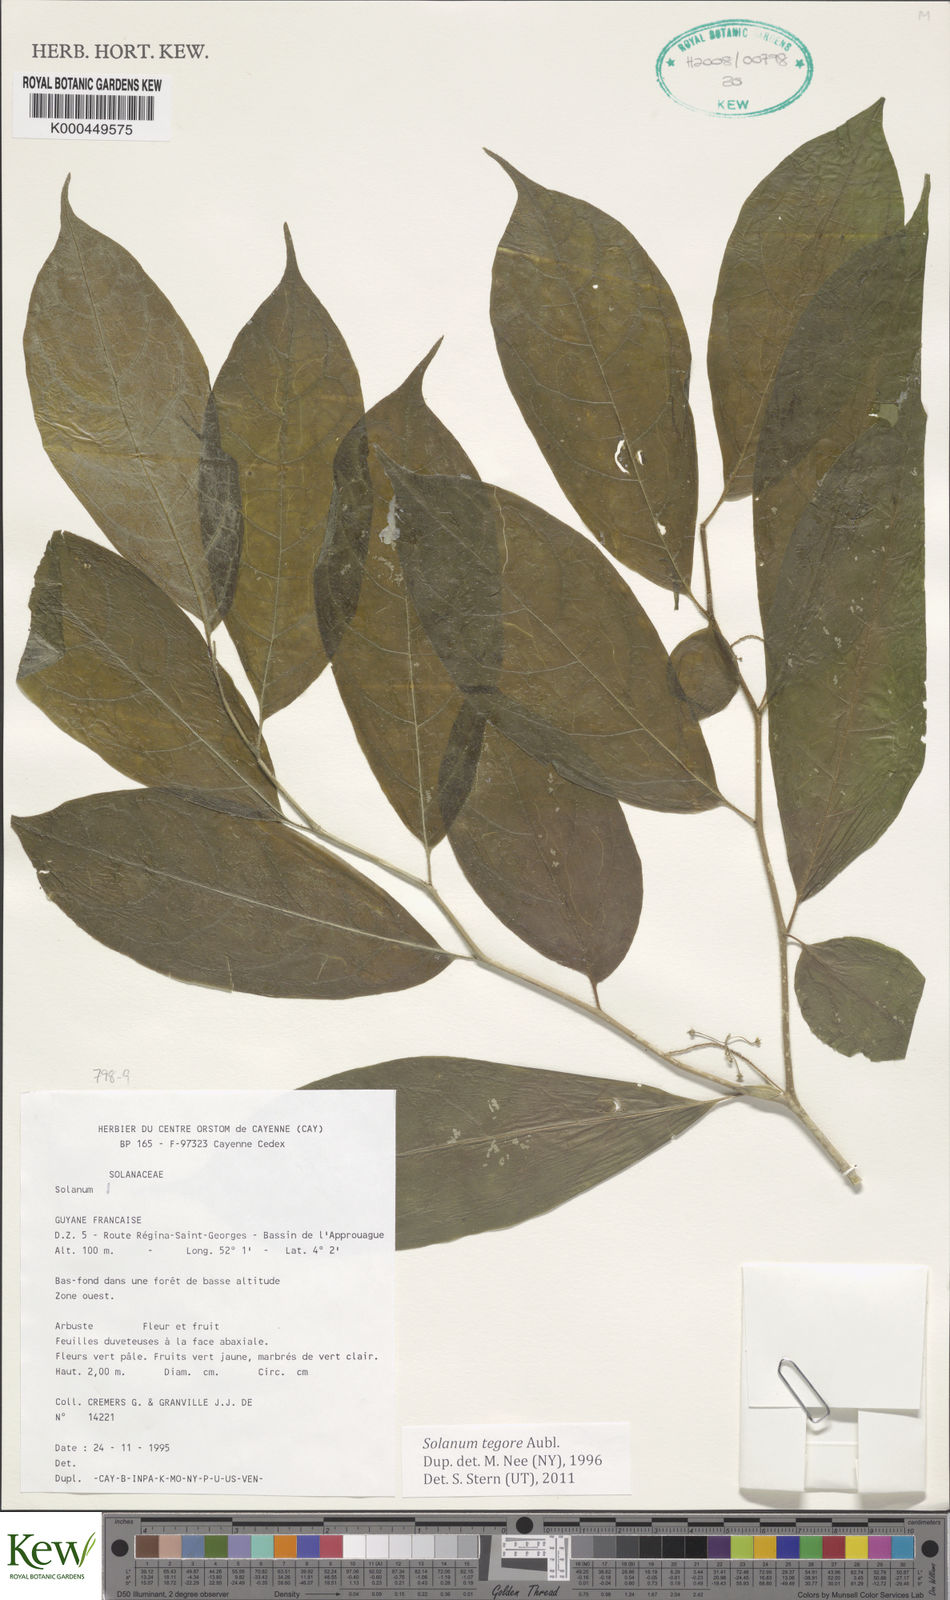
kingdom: Plantae
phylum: Tracheophyta
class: Magnoliopsida
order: Solanales
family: Solanaceae
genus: Solanum
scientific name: Solanum tegore
